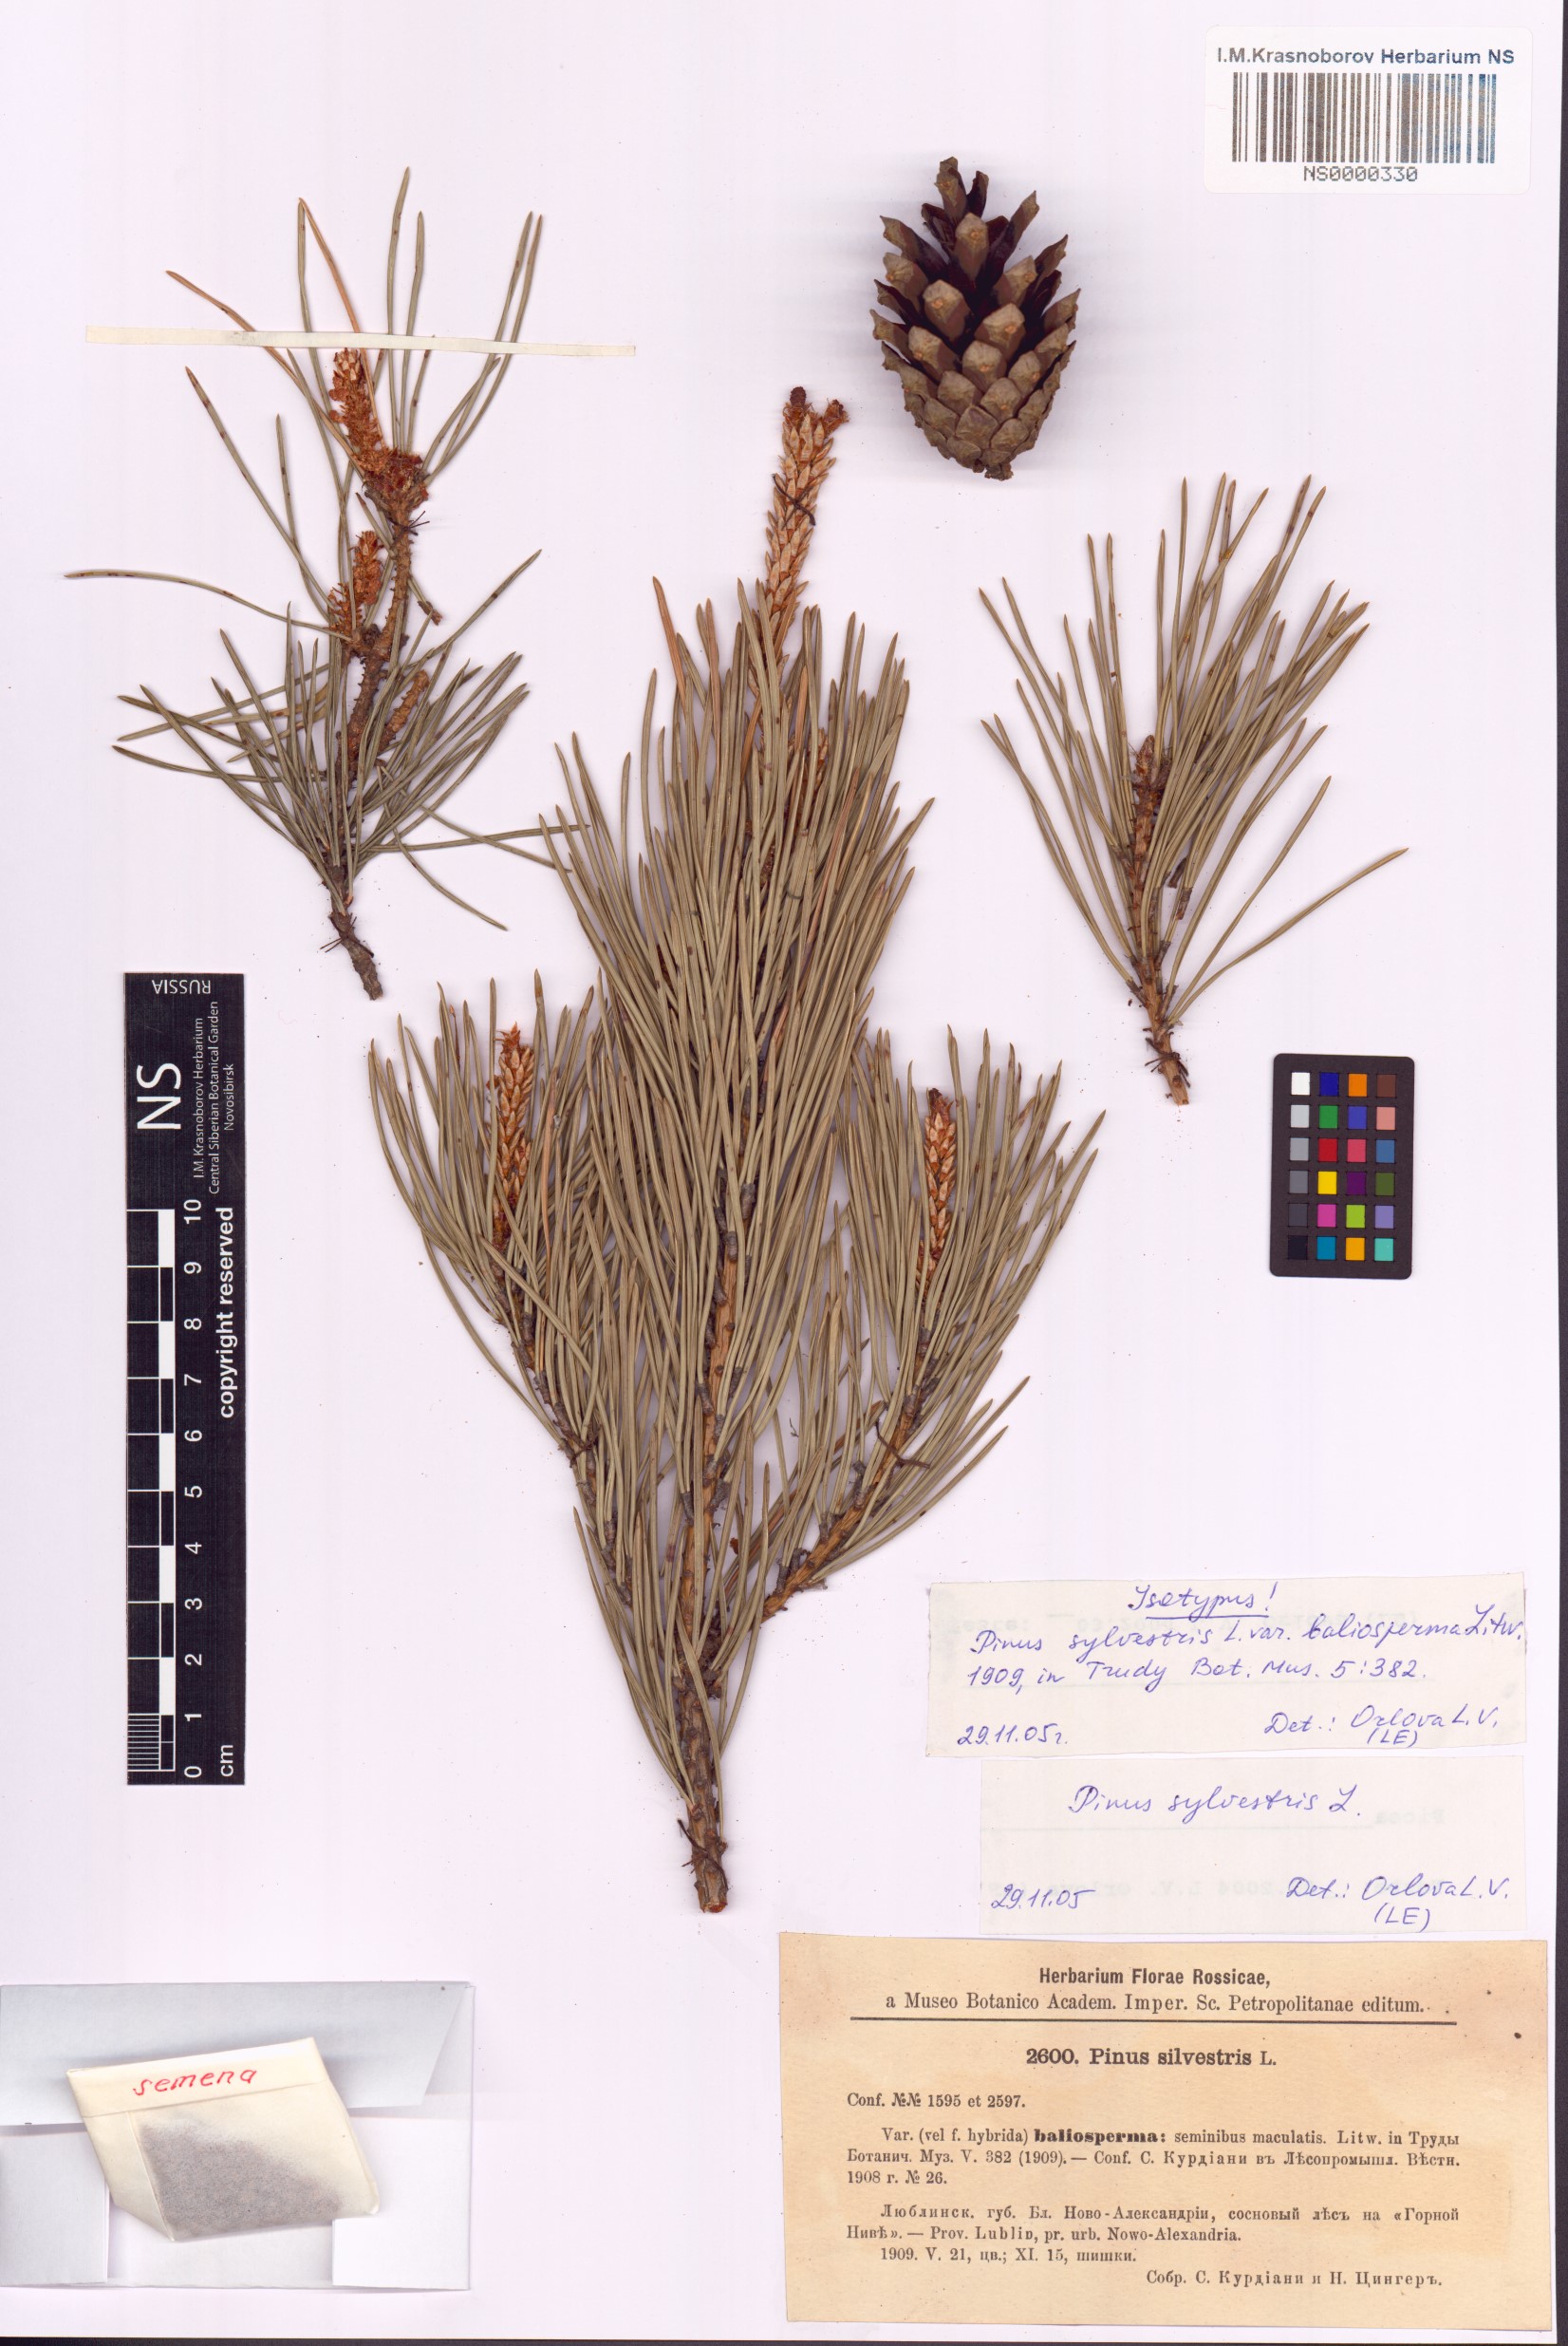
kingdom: Plantae
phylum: Tracheophyta
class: Pinopsida
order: Pinales
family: Pinaceae
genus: Pinus
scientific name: Pinus sylvestris
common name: Scots pine
